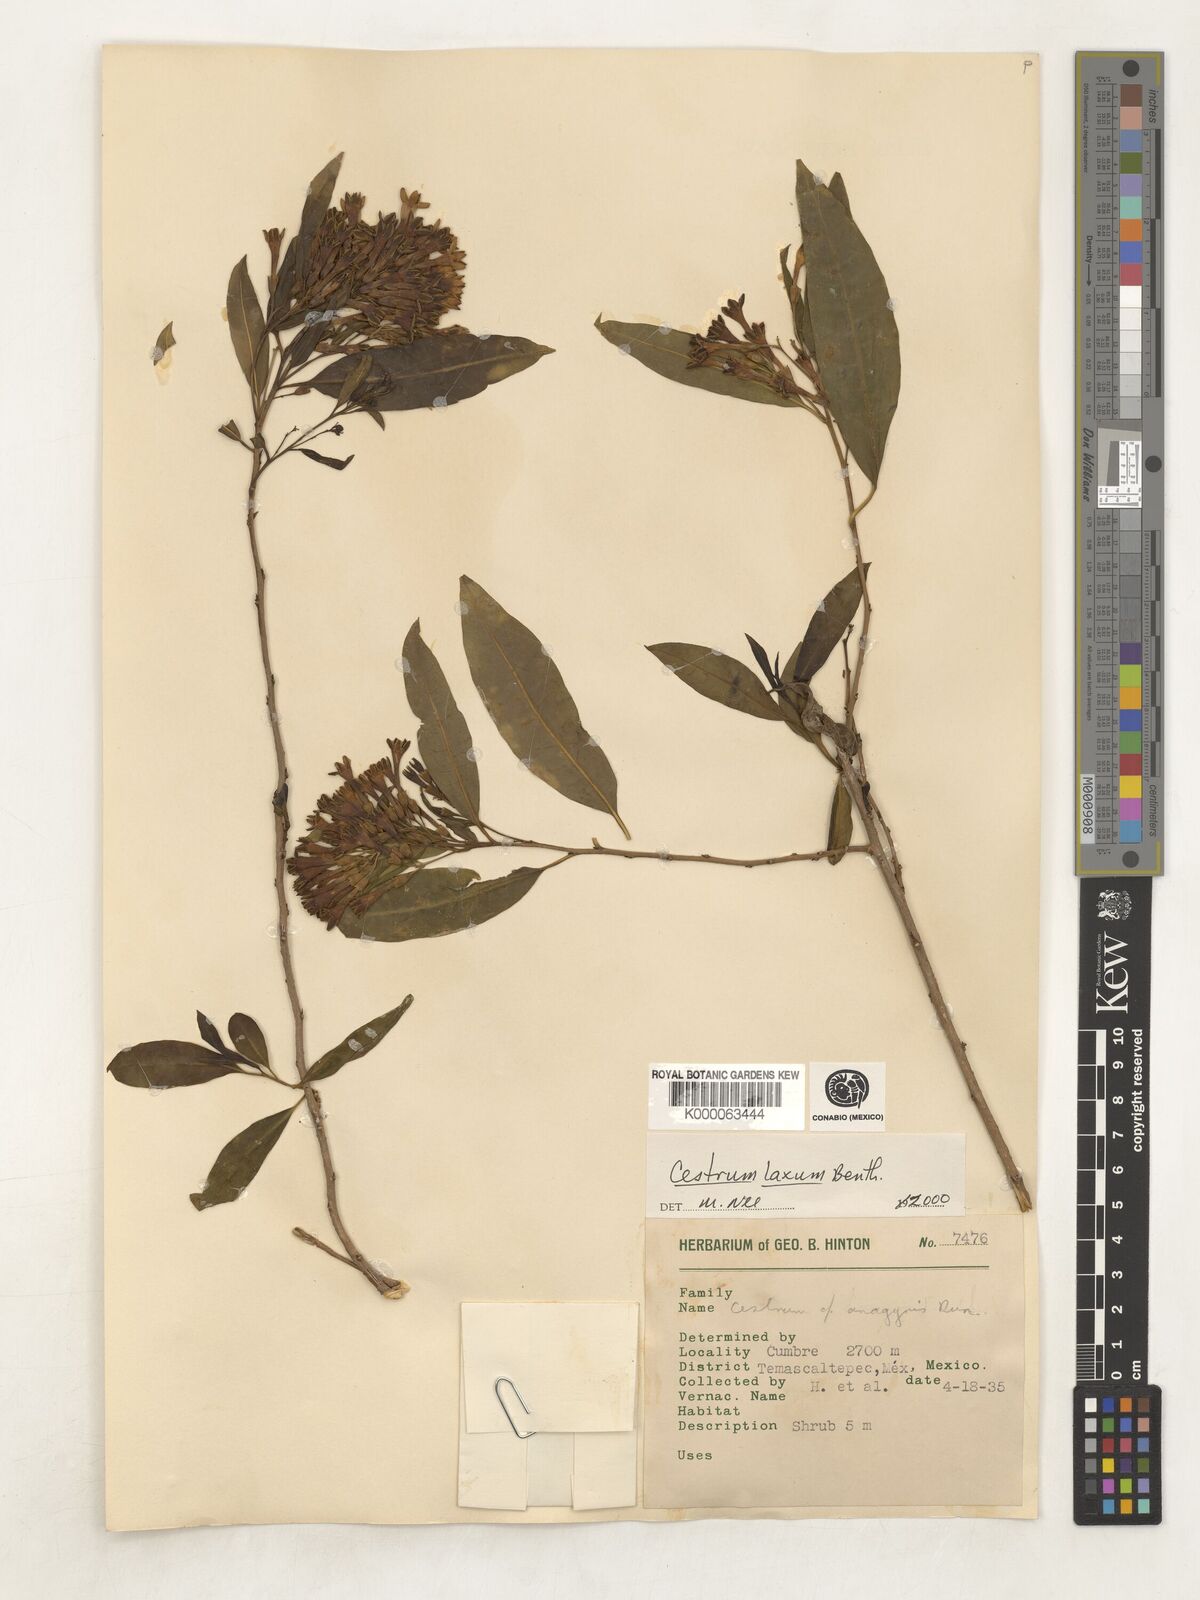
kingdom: Plantae
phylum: Tracheophyta
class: Magnoliopsida
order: Solanales
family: Solanaceae
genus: Cestrum
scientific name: Cestrum laxum
